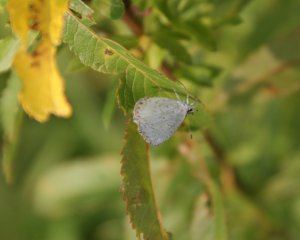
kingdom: Animalia
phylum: Arthropoda
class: Insecta
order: Lepidoptera
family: Lycaenidae
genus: Cyaniris
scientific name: Cyaniris neglecta
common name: Summer Azure
